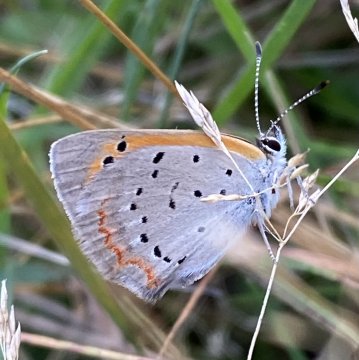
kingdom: Animalia
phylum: Arthropoda
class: Insecta
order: Lepidoptera
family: Lycaenidae
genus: Lycaena
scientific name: Lycaena phlaeas
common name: American Copper
